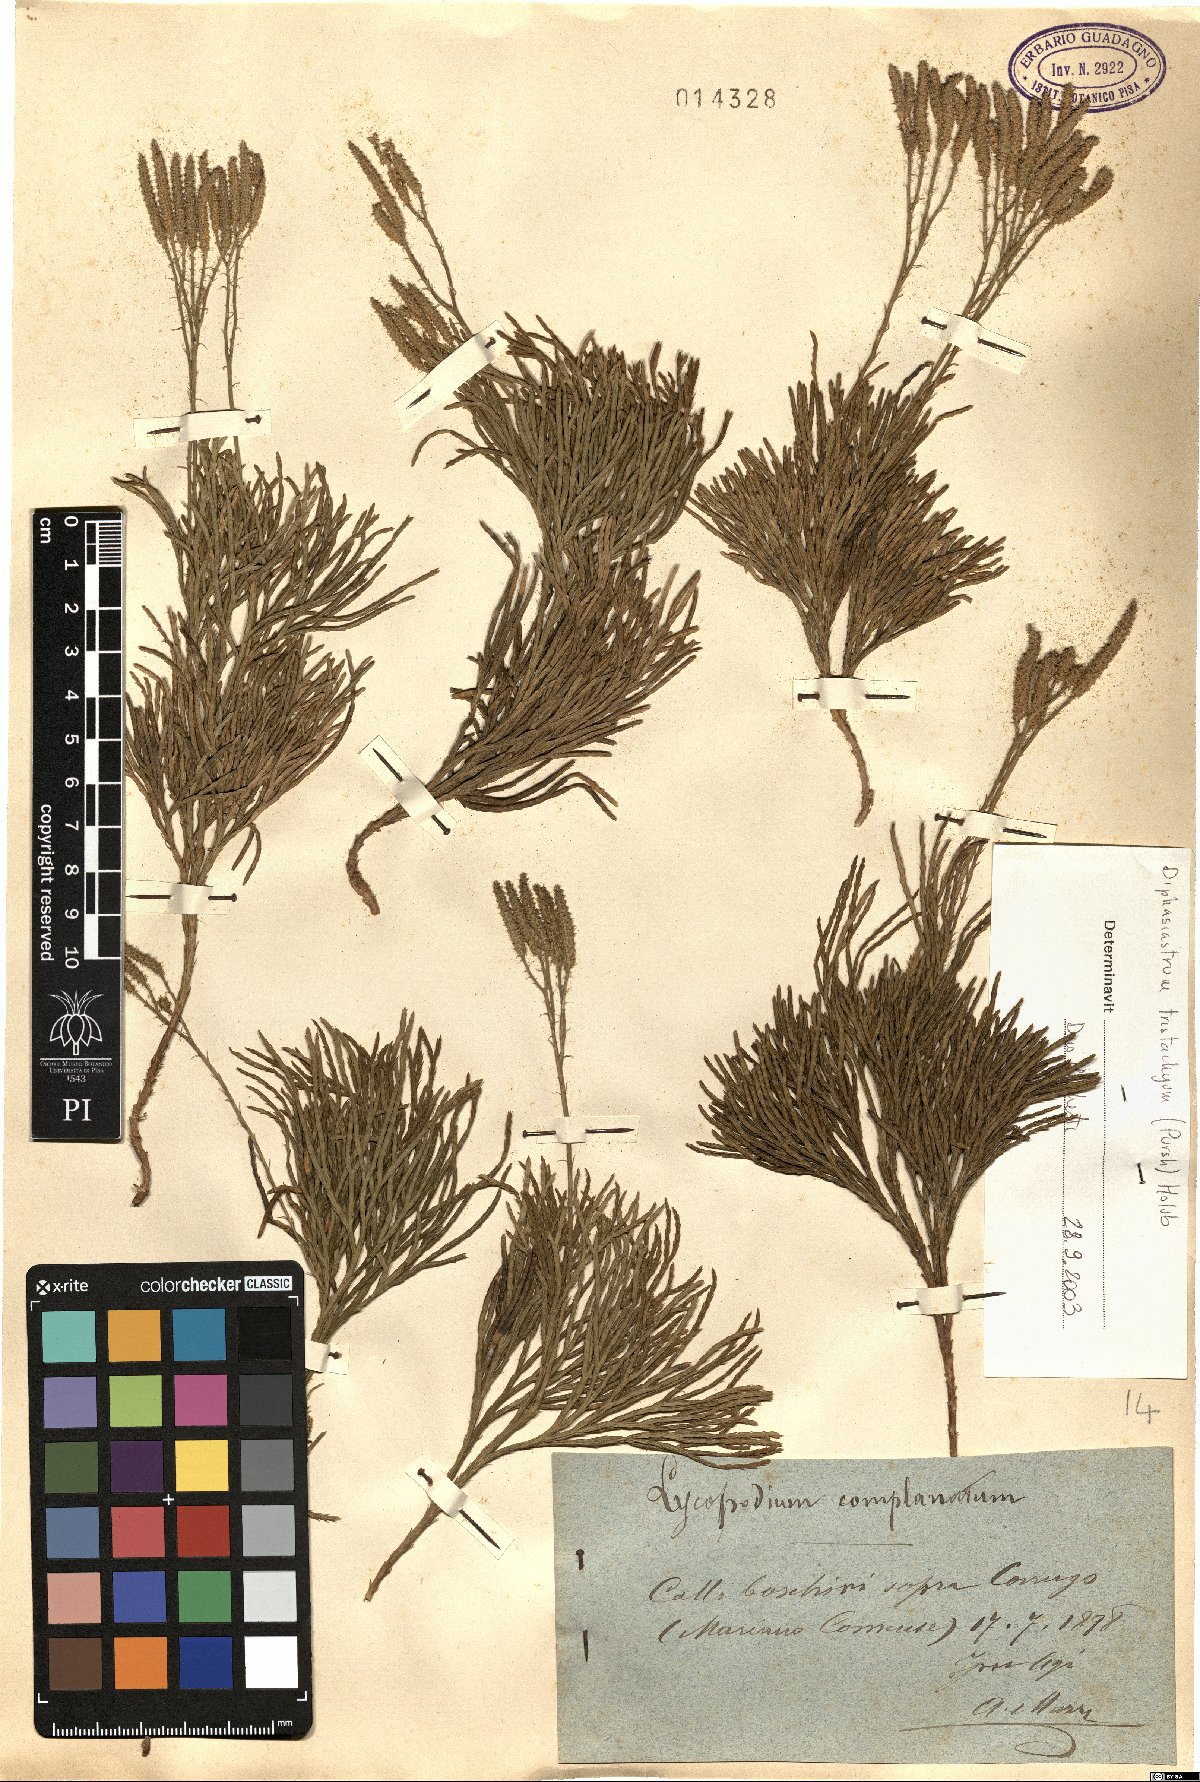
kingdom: Plantae
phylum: Tracheophyta
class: Lycopodiopsida
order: Lycopodiales
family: Lycopodiaceae
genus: Diphasiastrum
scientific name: Diphasiastrum tristachyum
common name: Blue ground-cedar
